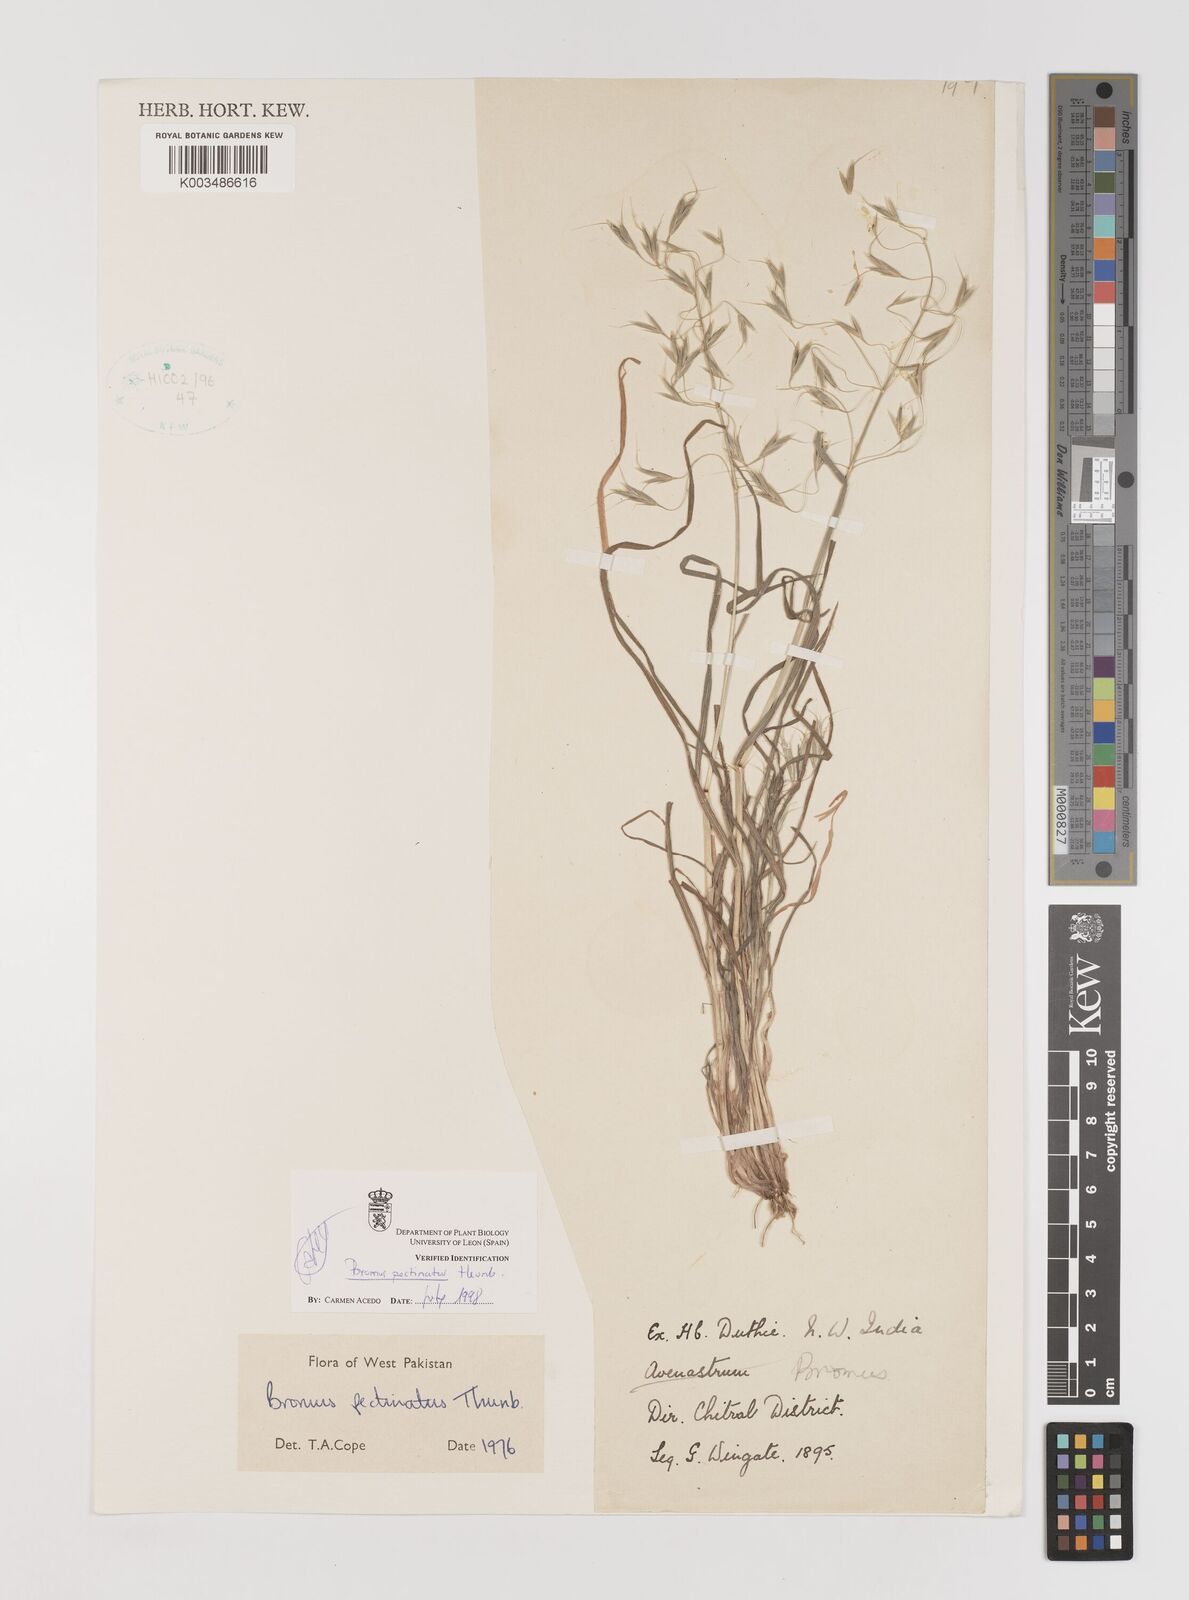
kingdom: Plantae
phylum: Tracheophyta
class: Liliopsida
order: Poales
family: Poaceae
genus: Bromus
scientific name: Bromus pectinatus
